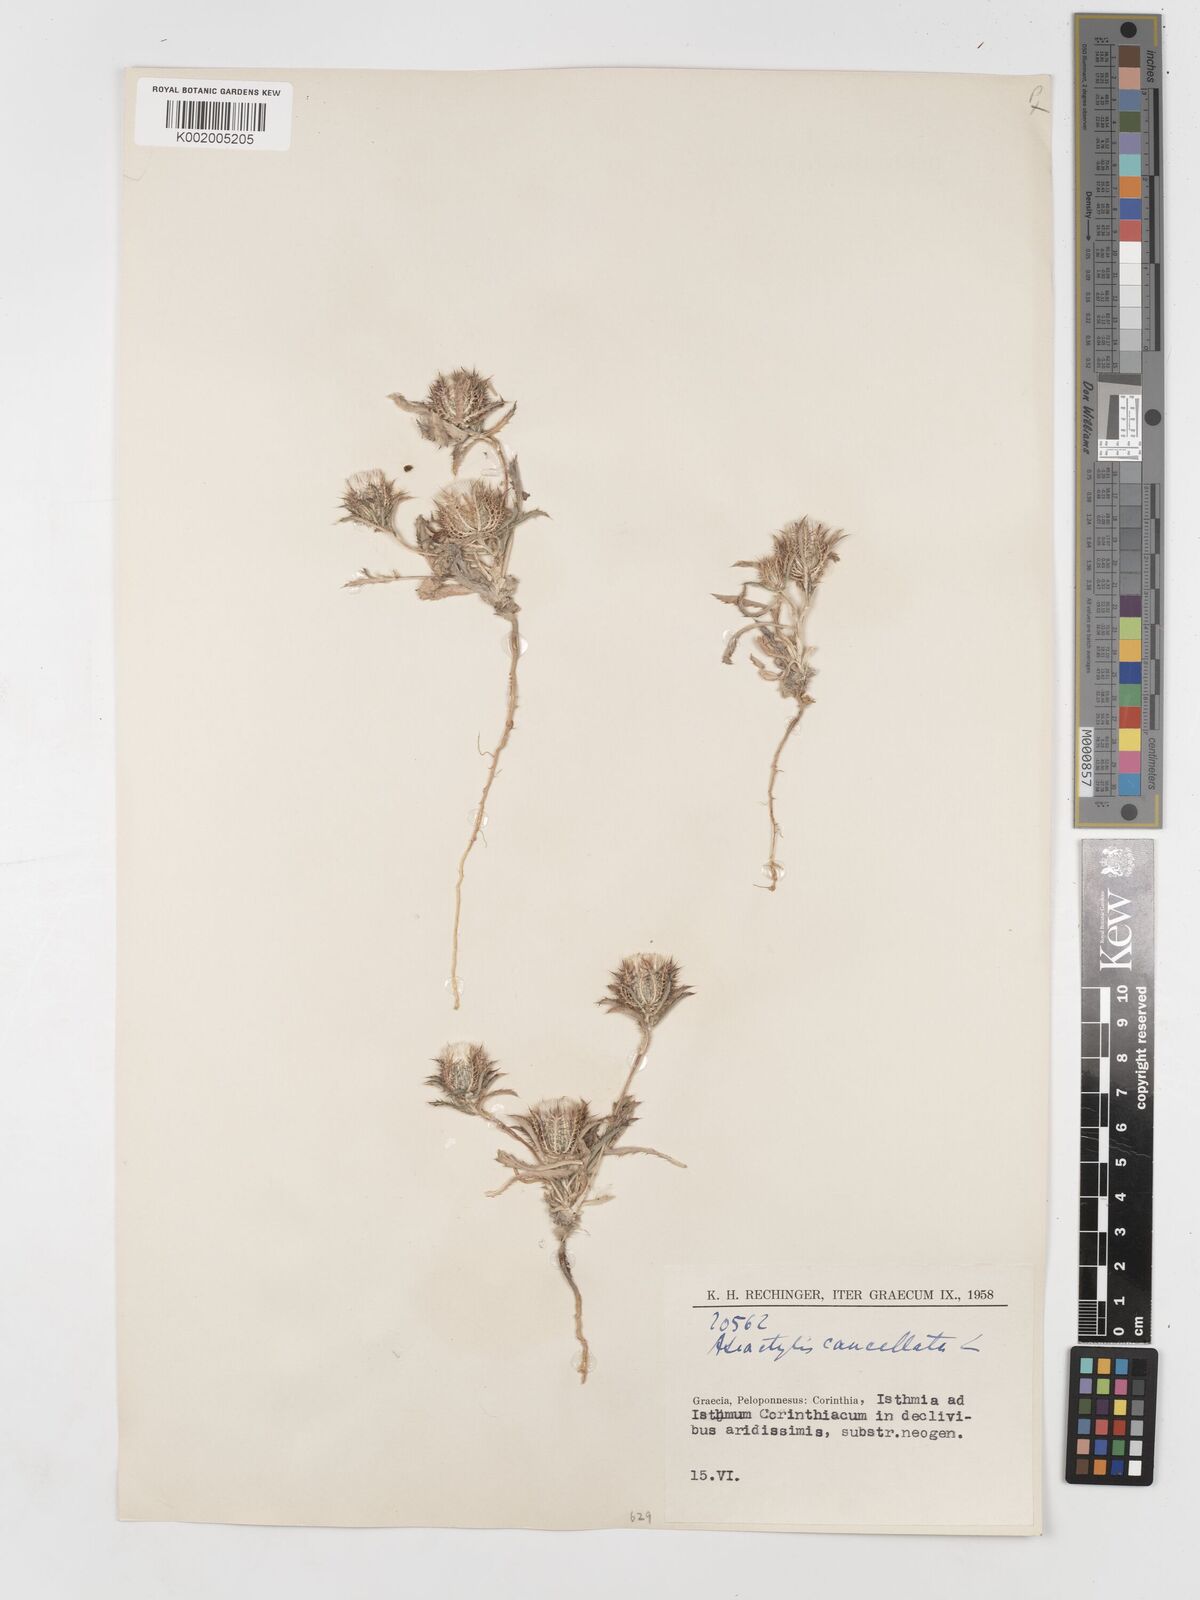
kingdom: Plantae
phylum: Tracheophyta
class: Magnoliopsida
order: Asterales
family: Asteraceae
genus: Atractylis
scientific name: Atractylis cancellata
